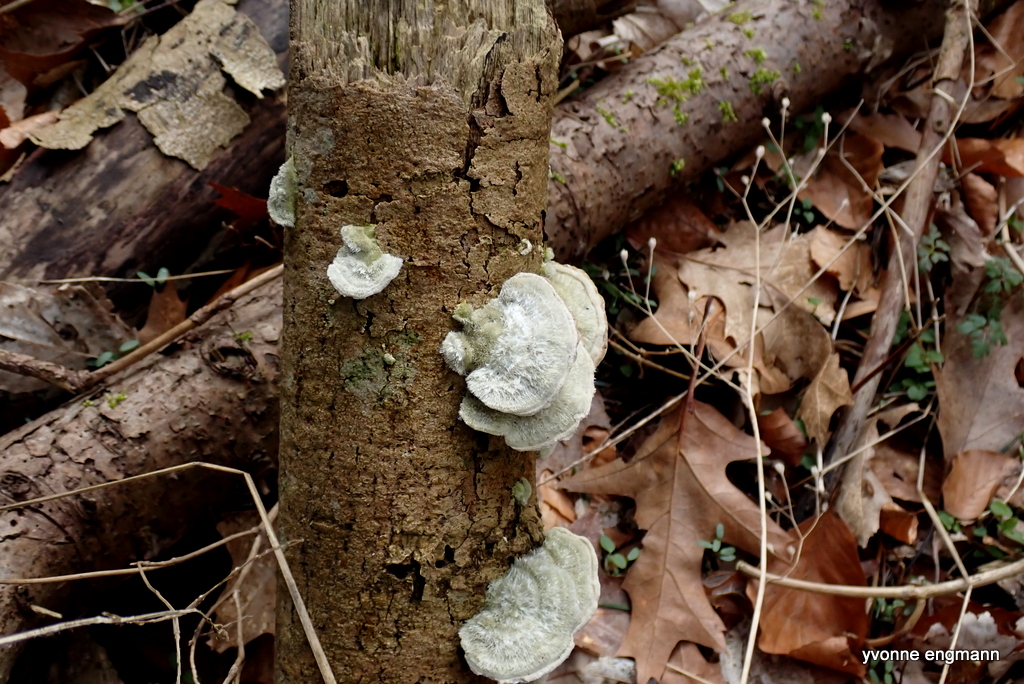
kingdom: Fungi
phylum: Basidiomycota
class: Agaricomycetes
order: Polyporales
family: Polyporaceae
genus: Trametes
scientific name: Trametes hirsuta
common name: håret læderporesvamp
